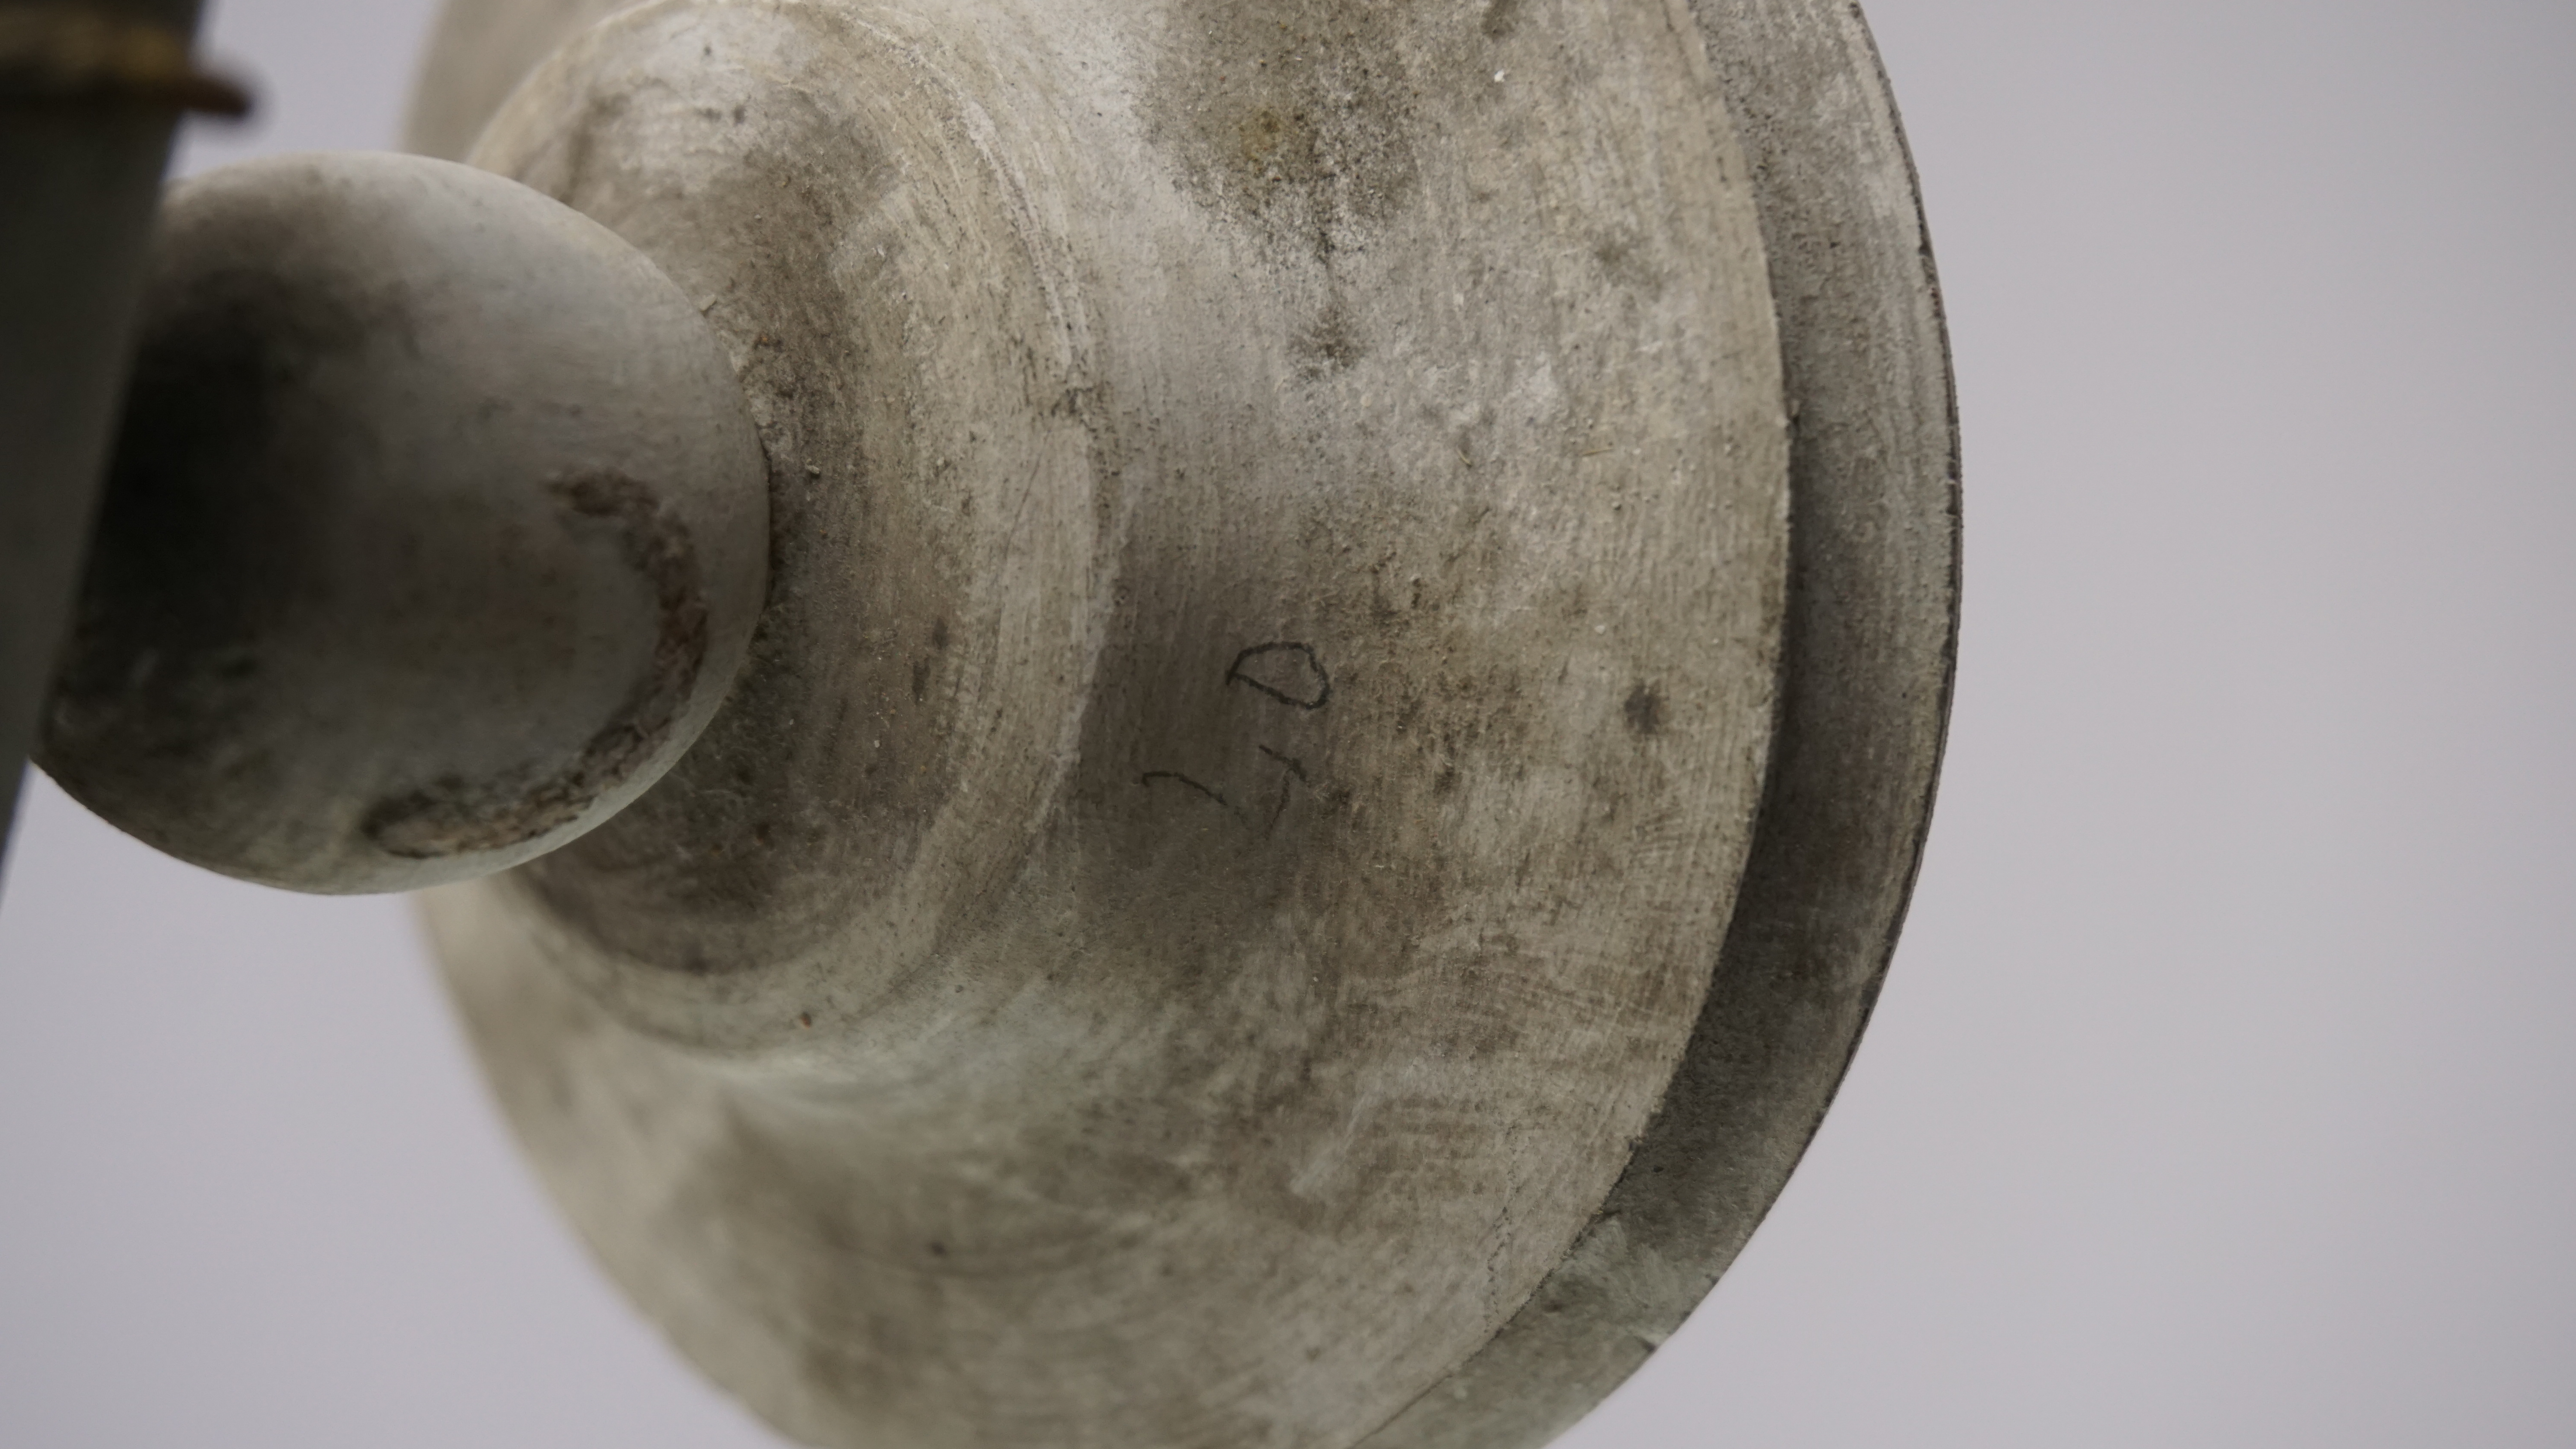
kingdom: Animalia
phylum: Chordata
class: Aves
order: Strigiformes
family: Strigidae
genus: Athene
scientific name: Athene cunicularia
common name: Burrowing owl
